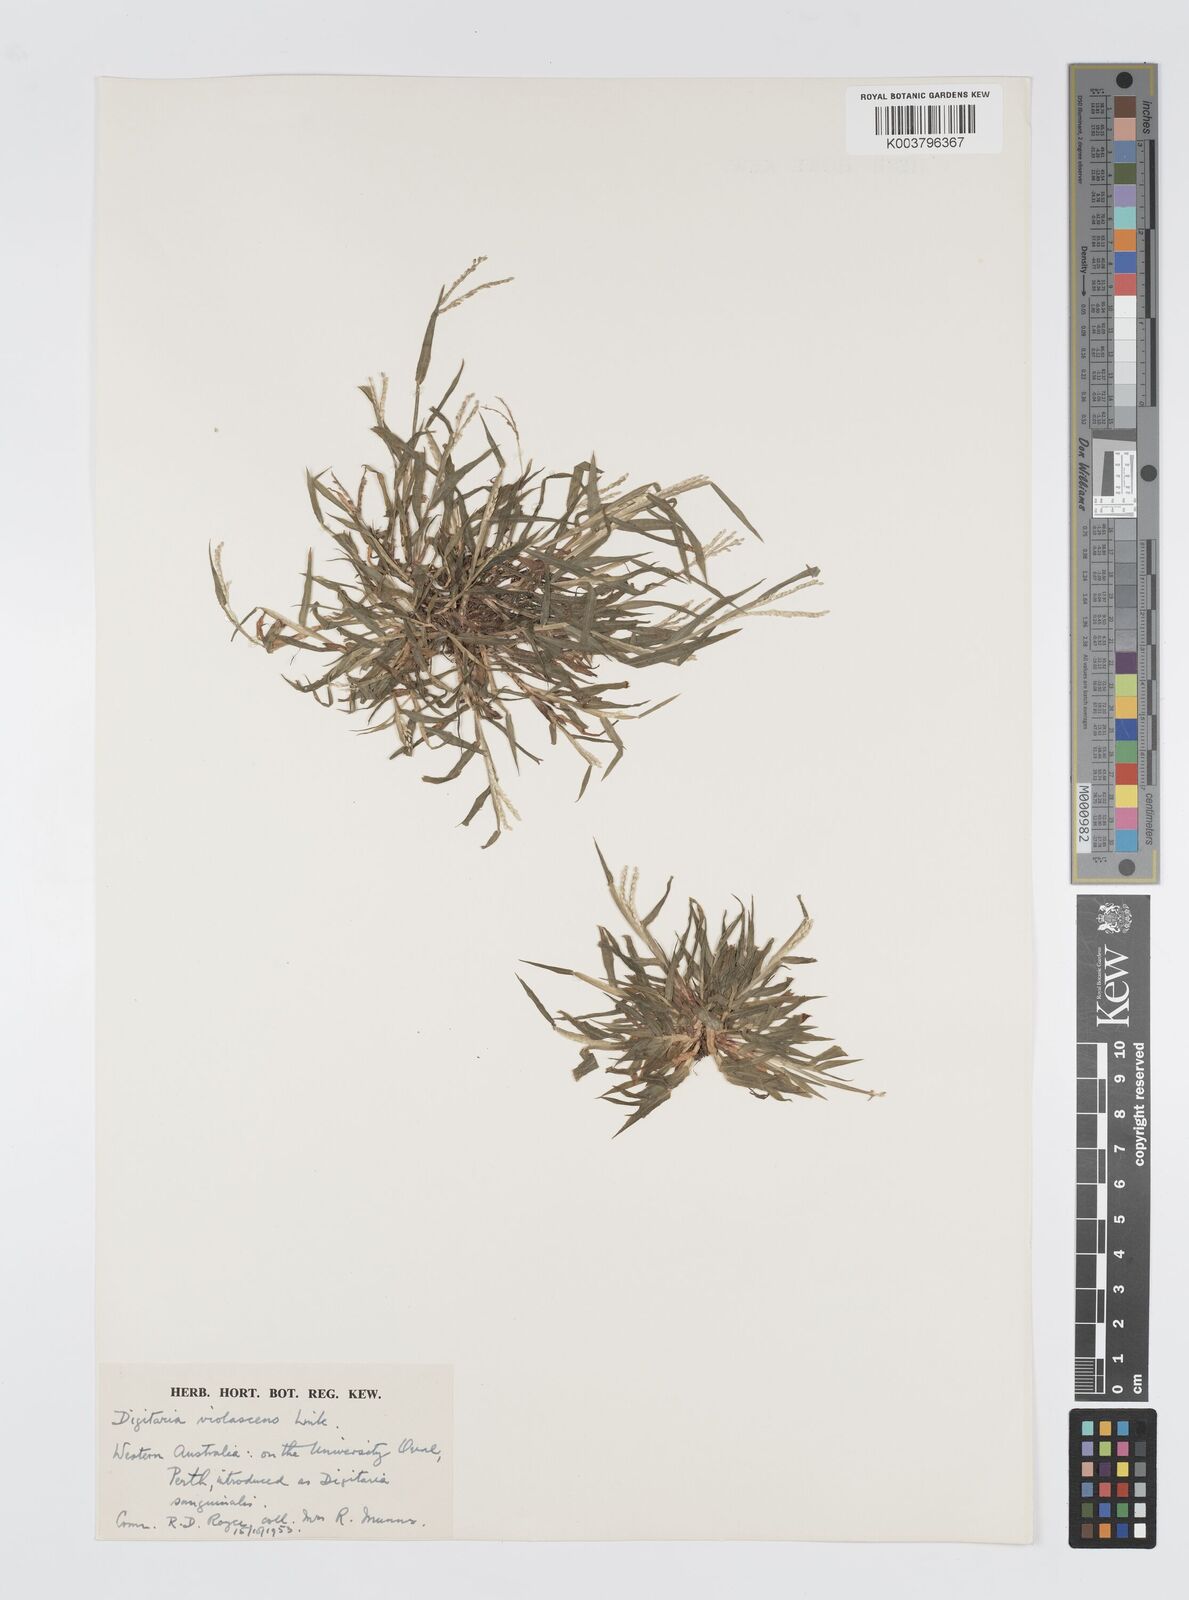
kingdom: Plantae
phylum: Tracheophyta
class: Liliopsida
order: Poales
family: Poaceae
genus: Digitaria
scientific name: Digitaria violascens
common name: Violet crabgrass
